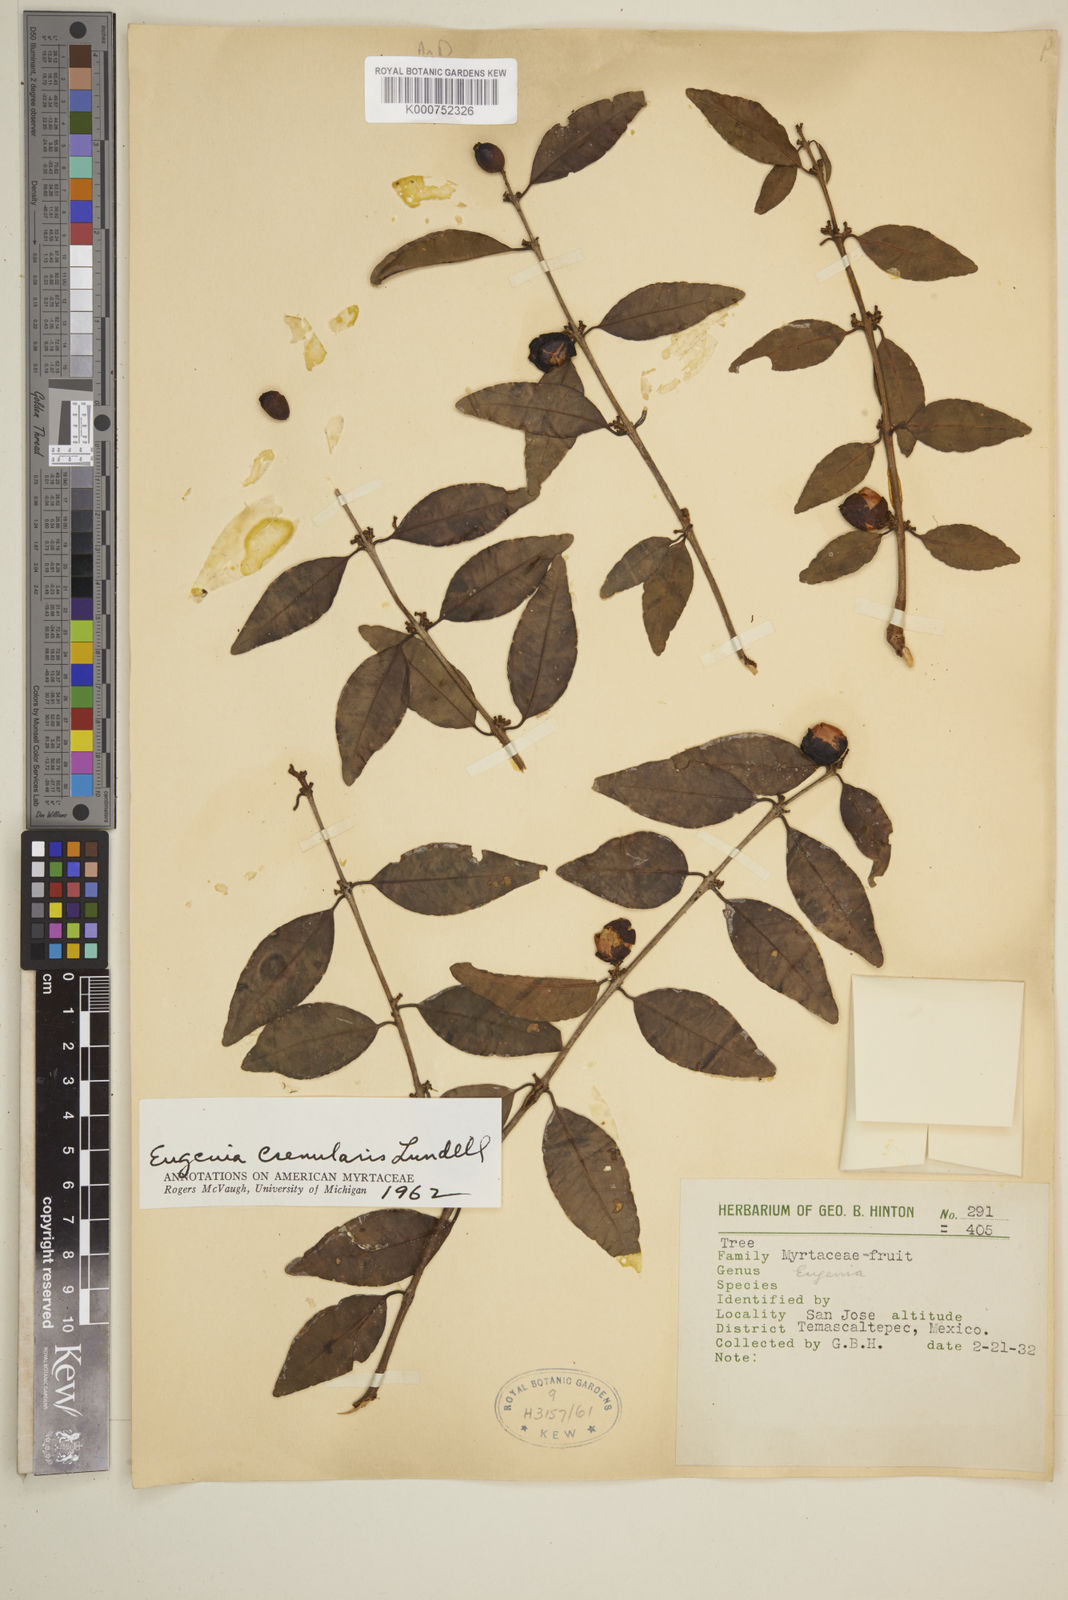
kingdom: Plantae
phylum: Tracheophyta
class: Magnoliopsida
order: Myrtales
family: Myrtaceae
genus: Eugenia
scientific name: Eugenia crenularis
